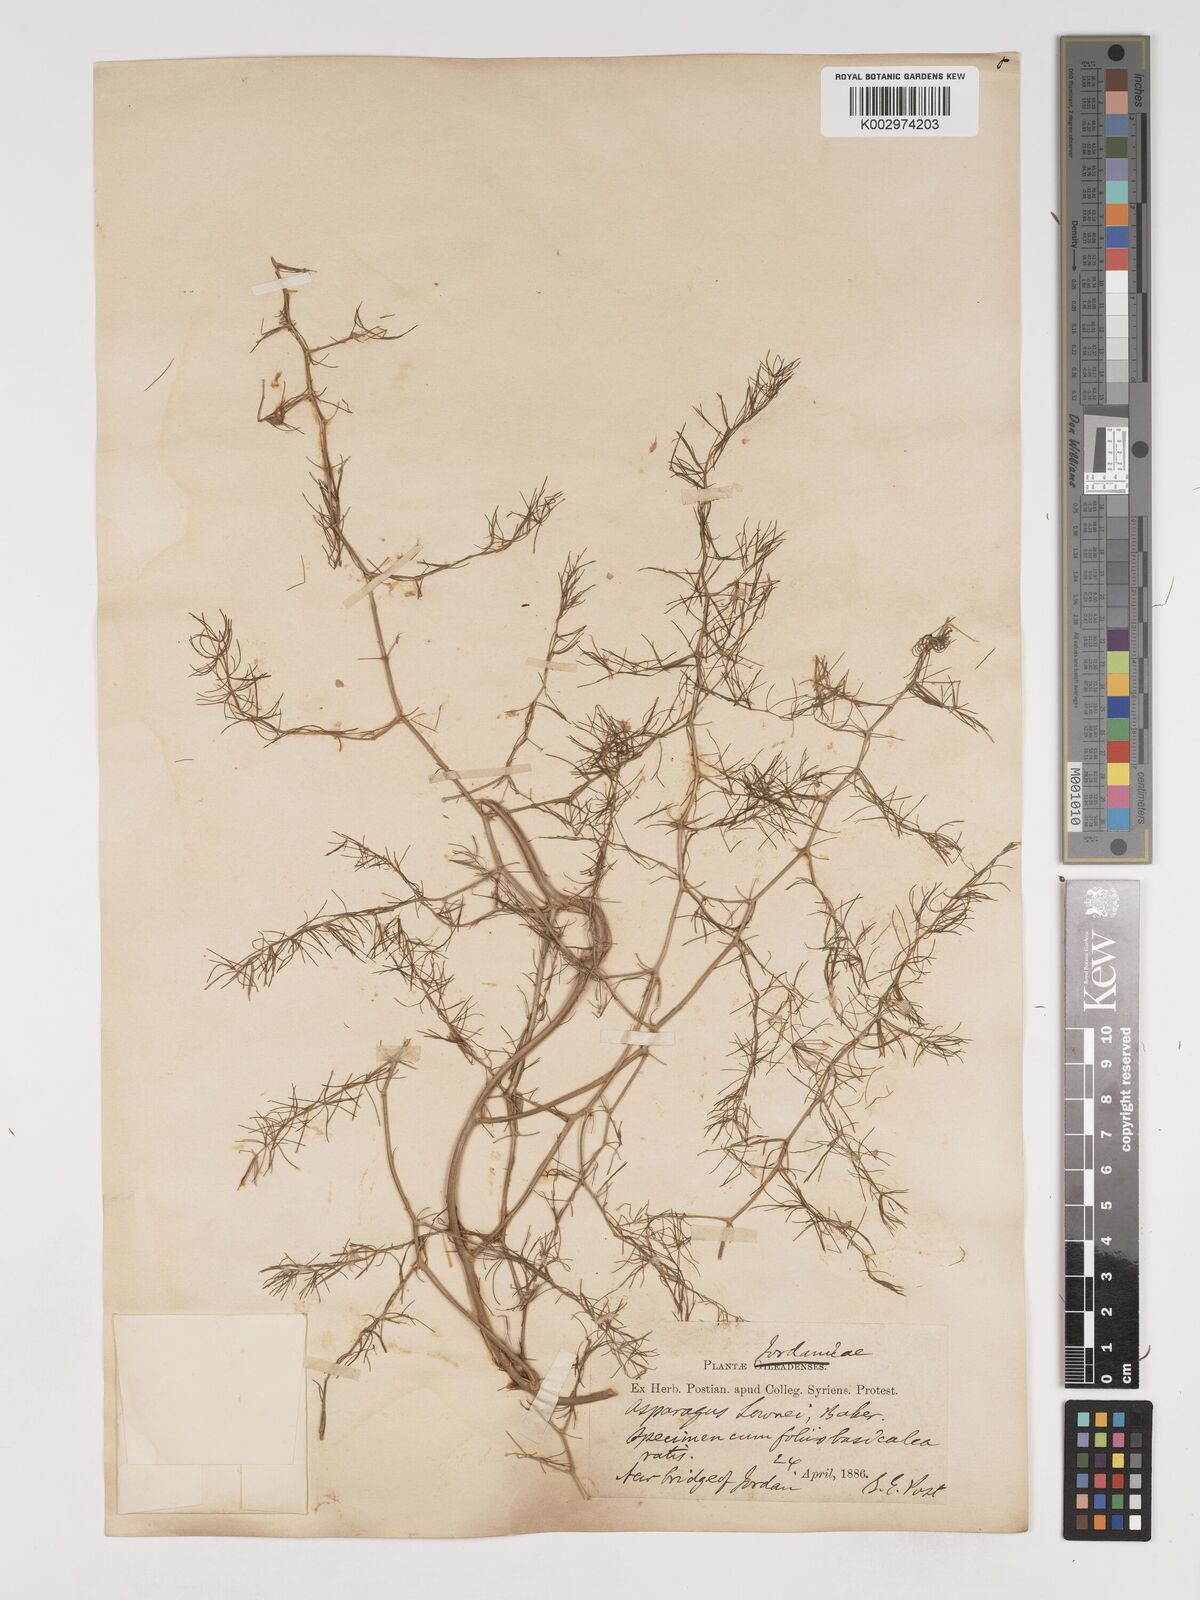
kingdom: Plantae
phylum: Tracheophyta
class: Liliopsida
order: Asparagales
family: Asparagaceae
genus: Asparagus
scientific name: Asparagus palaestinus
